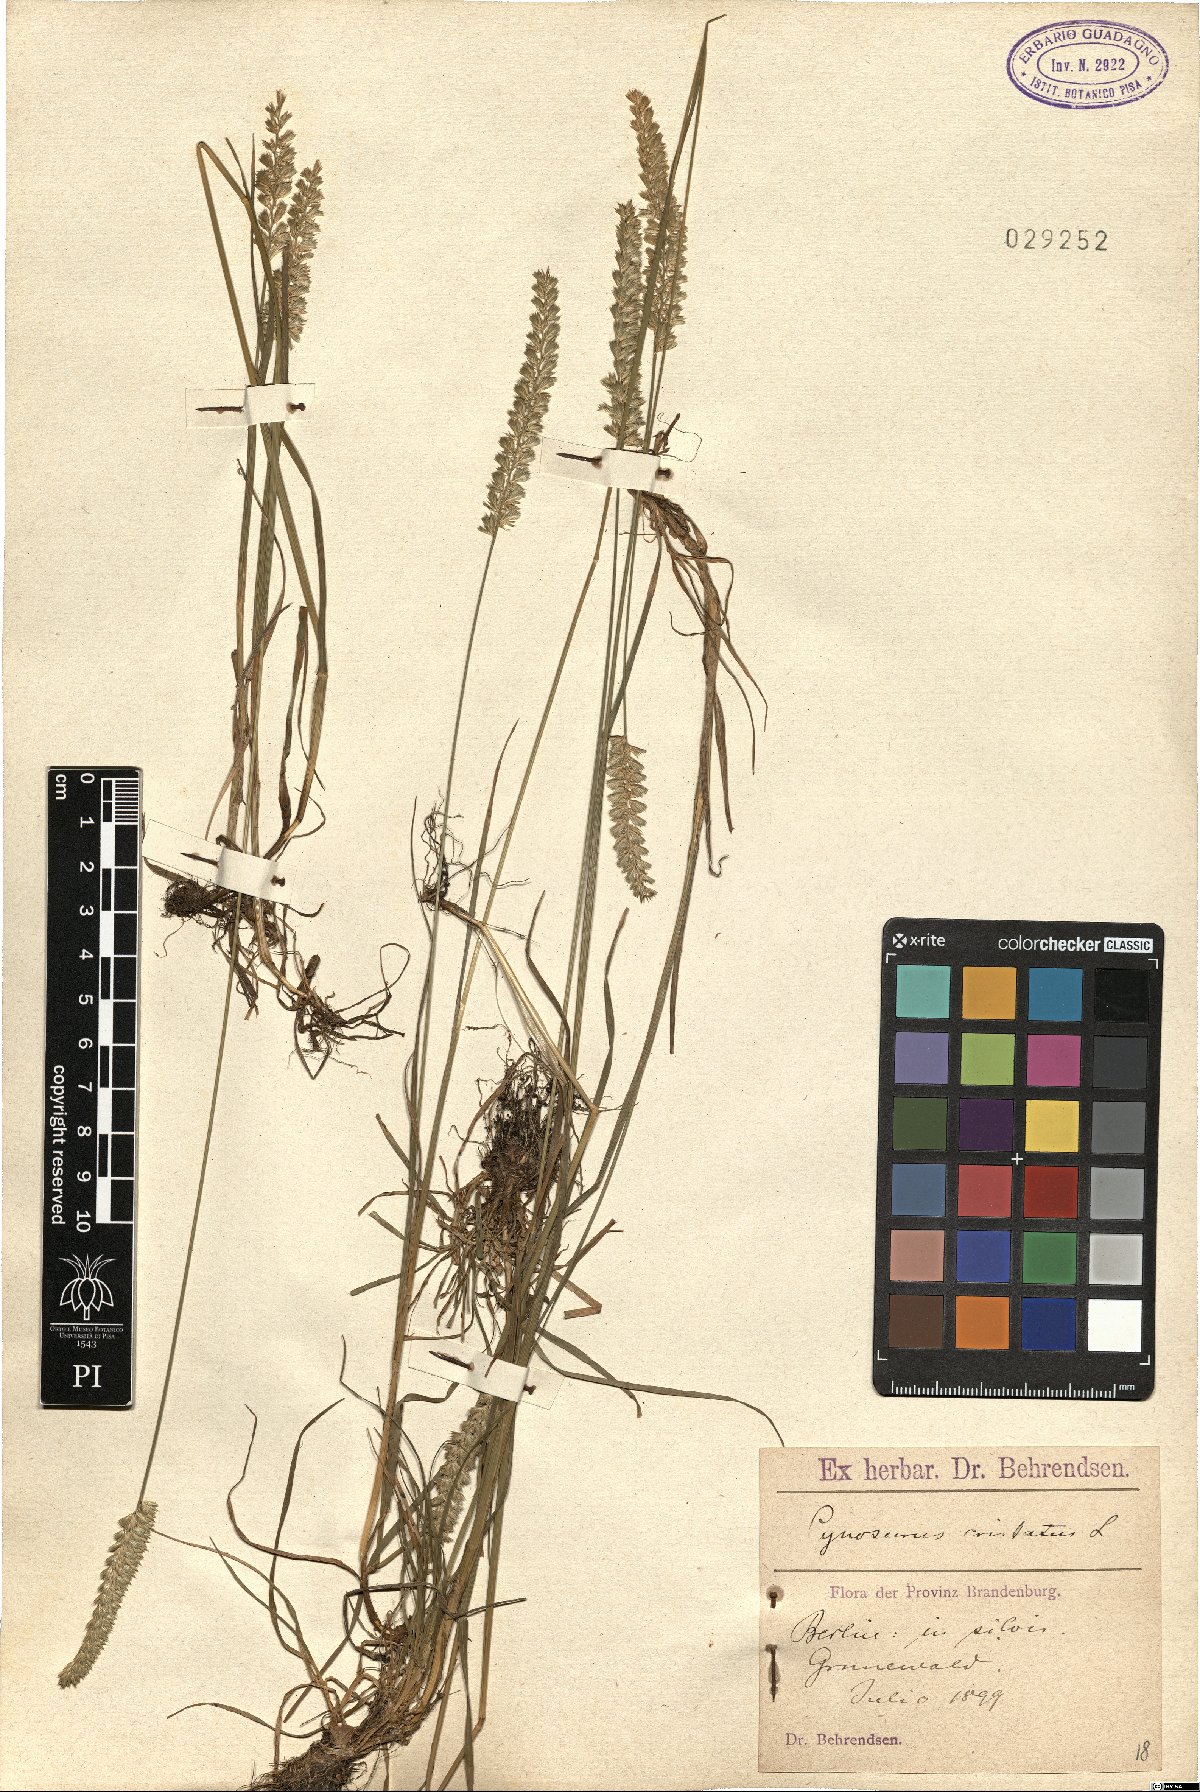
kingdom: Plantae
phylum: Tracheophyta
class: Liliopsida
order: Poales
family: Poaceae
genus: Cynosurus
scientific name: Cynosurus cristatus
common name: Crested dog's-tail
